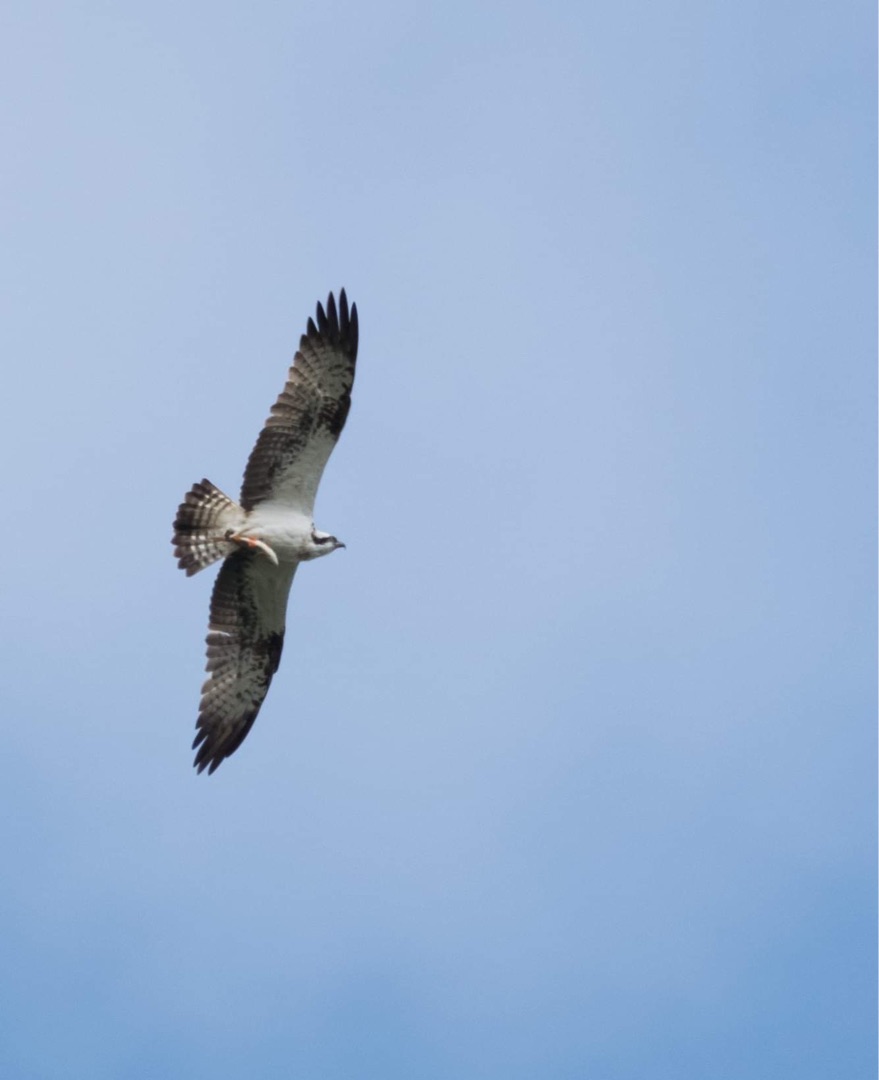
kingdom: Animalia
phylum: Chordata
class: Aves
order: Accipitriformes
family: Pandionidae
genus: Pandion
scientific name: Pandion haliaetus
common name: Fiskeørn
